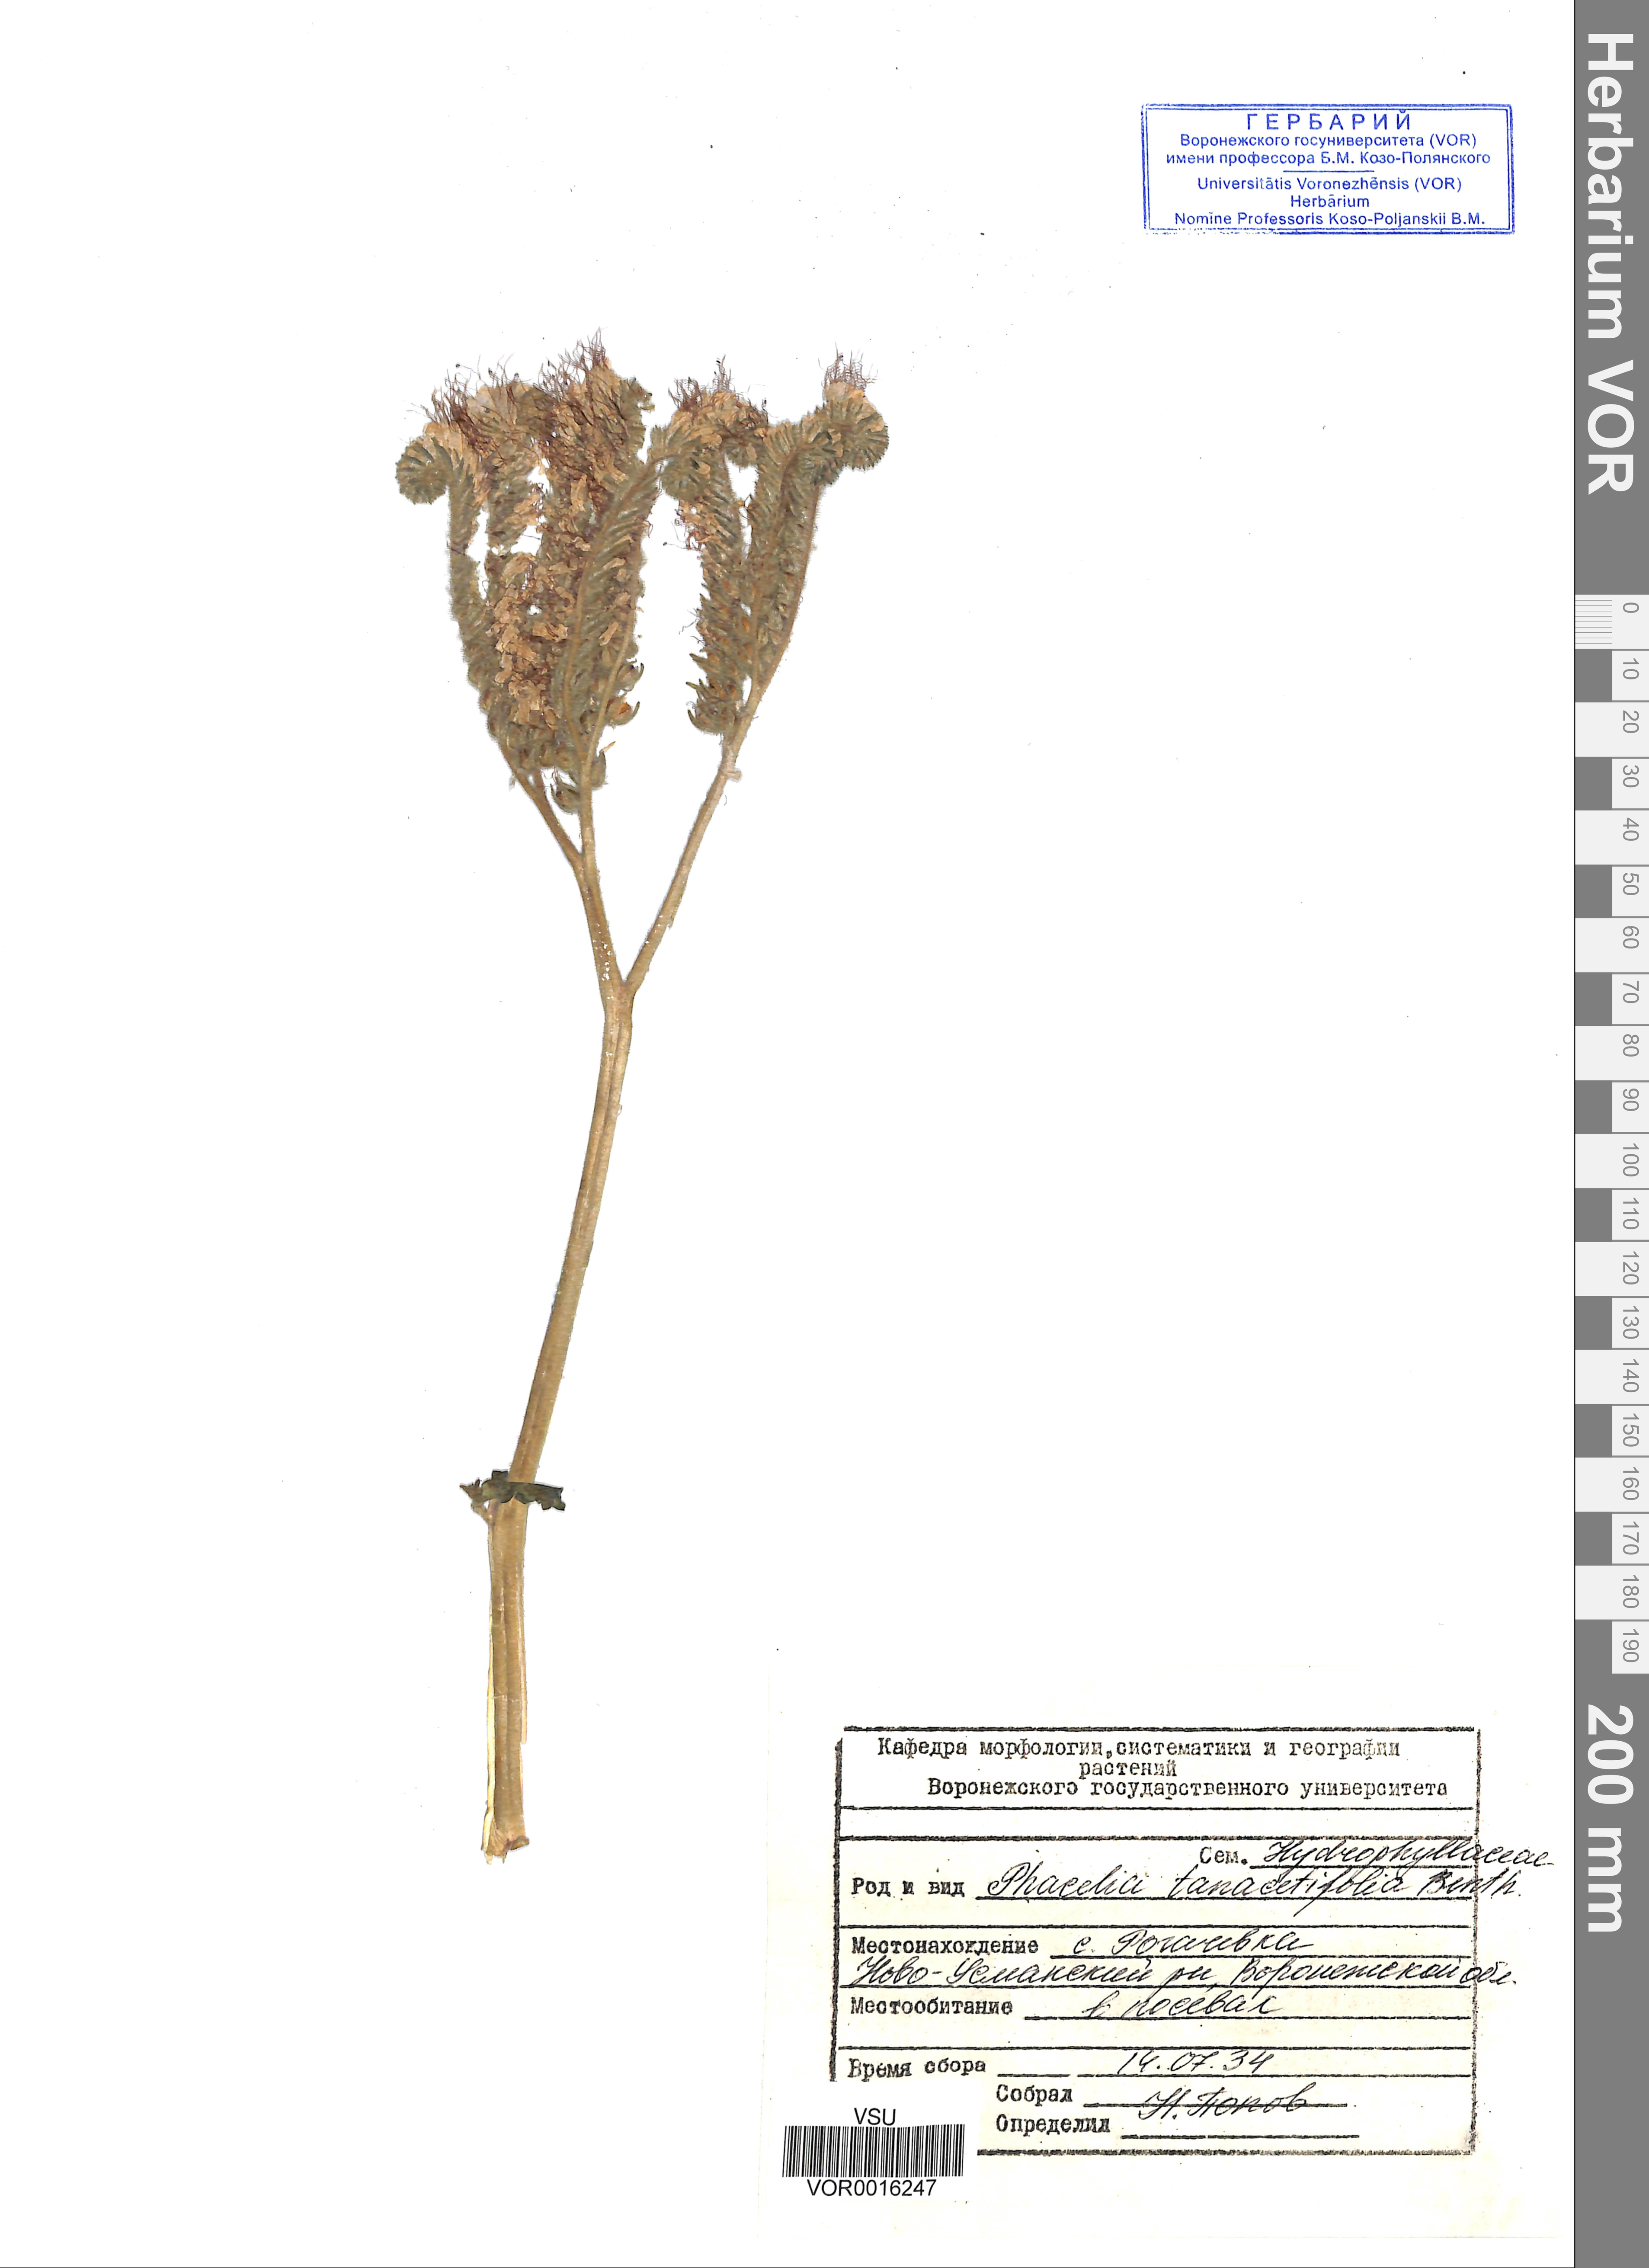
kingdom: Plantae
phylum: Tracheophyta
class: Magnoliopsida
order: Boraginales
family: Hydrophyllaceae
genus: Phacelia
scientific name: Phacelia tanacetifolia
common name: Phacelia
